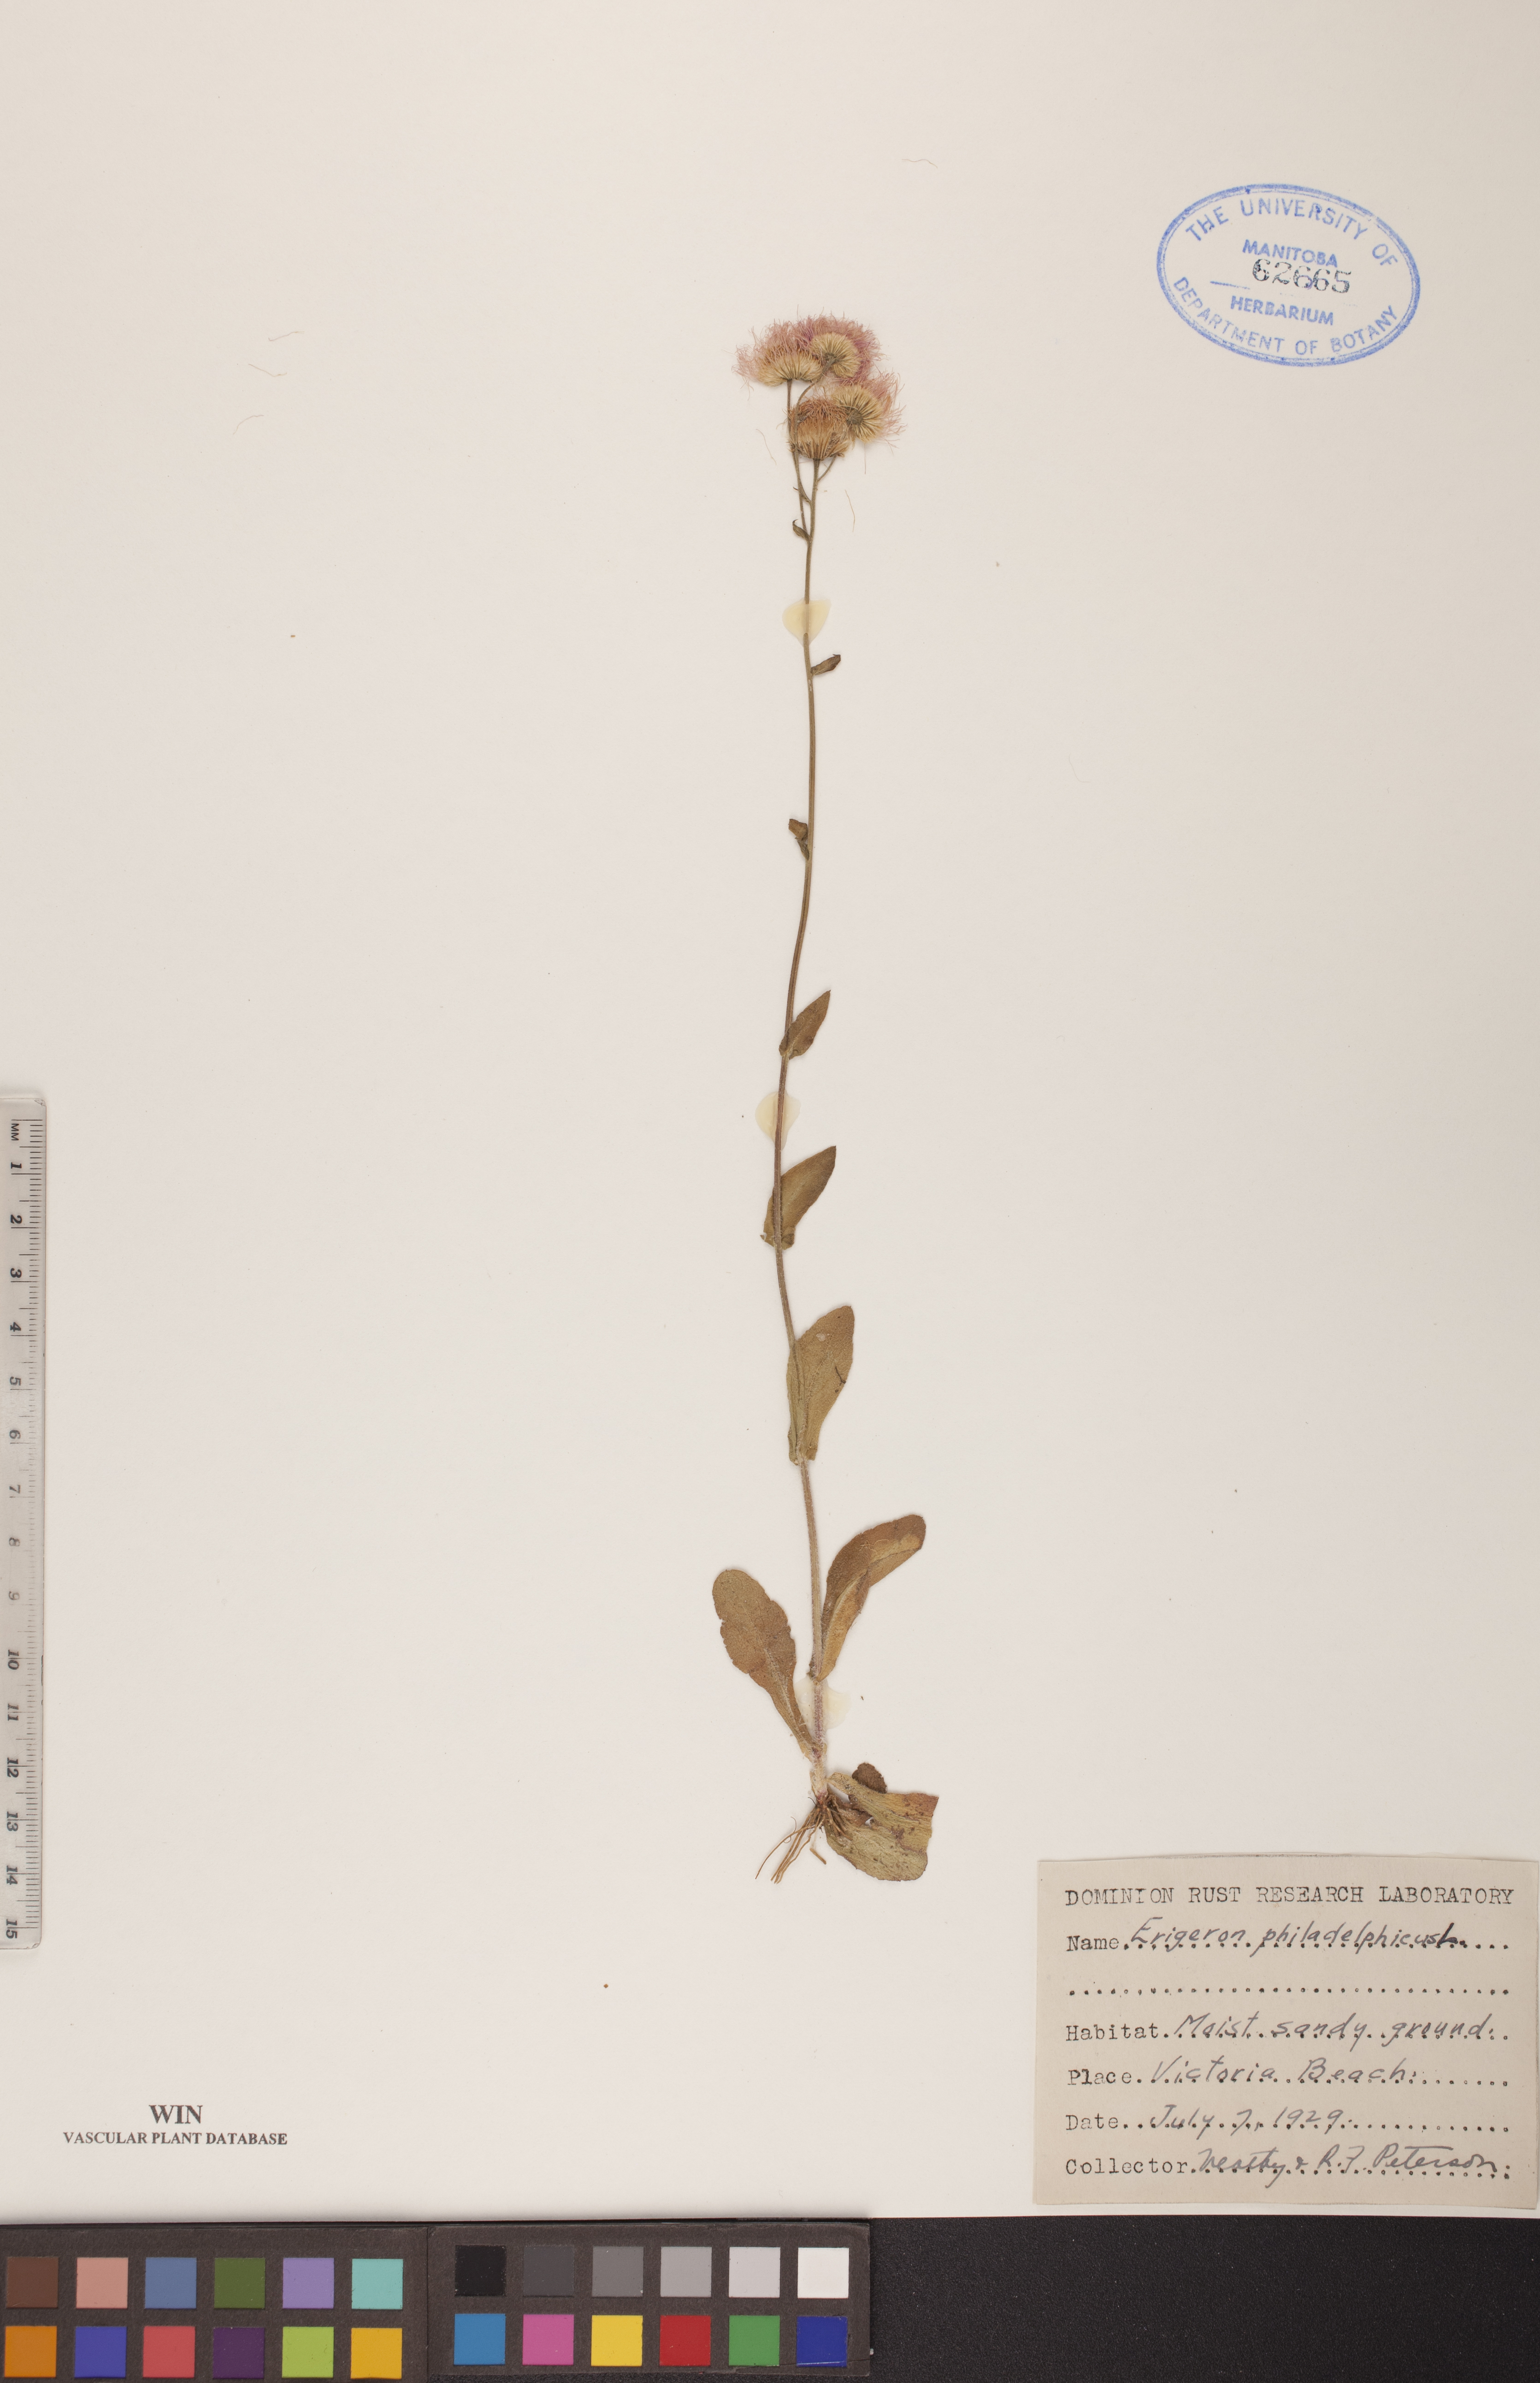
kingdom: Plantae
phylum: Tracheophyta
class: Magnoliopsida
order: Asterales
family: Asteraceae
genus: Erigeron
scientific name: Erigeron philadelphicus
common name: Robin's-plantain
